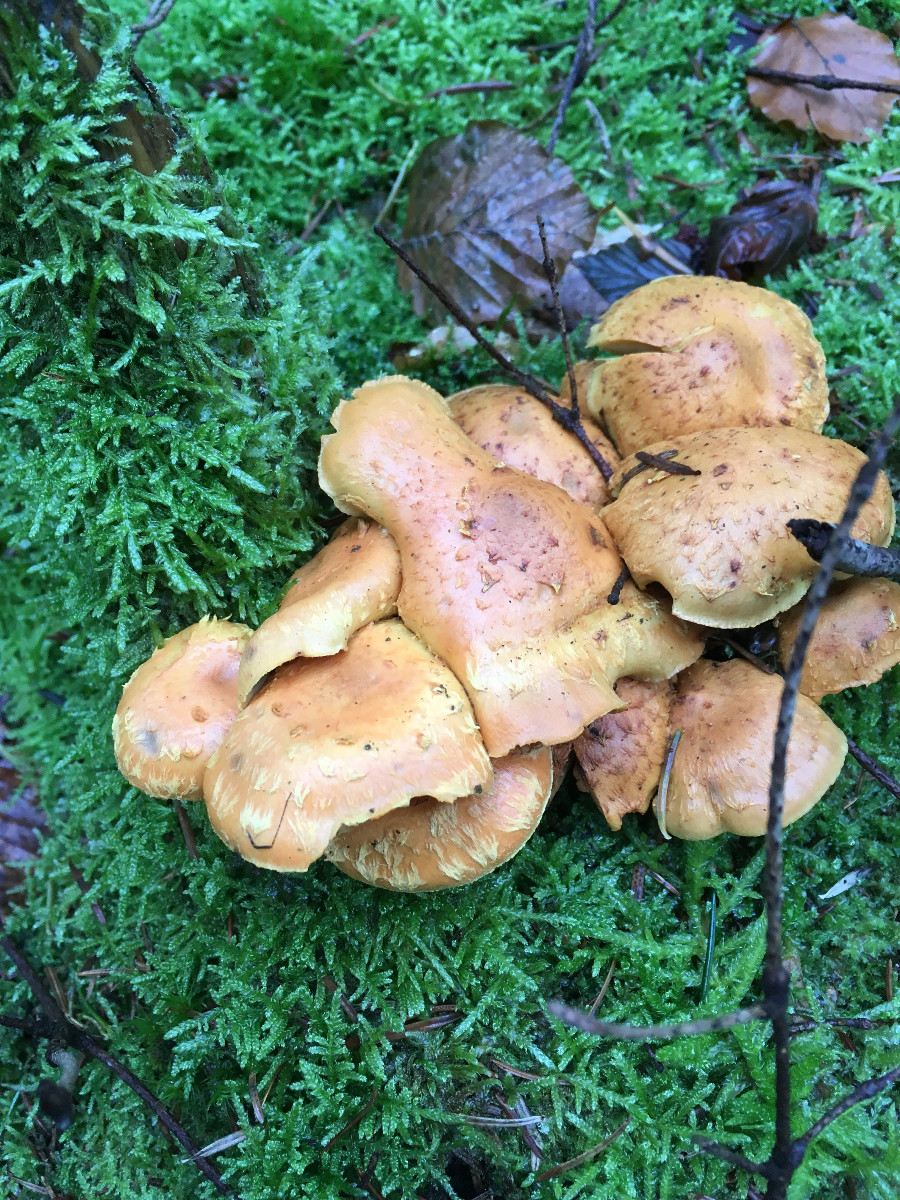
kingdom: Fungi
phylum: Basidiomycota
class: Agaricomycetes
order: Agaricales
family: Strophariaceae
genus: Pholiota
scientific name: Pholiota flammans
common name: flamme-skælhat
